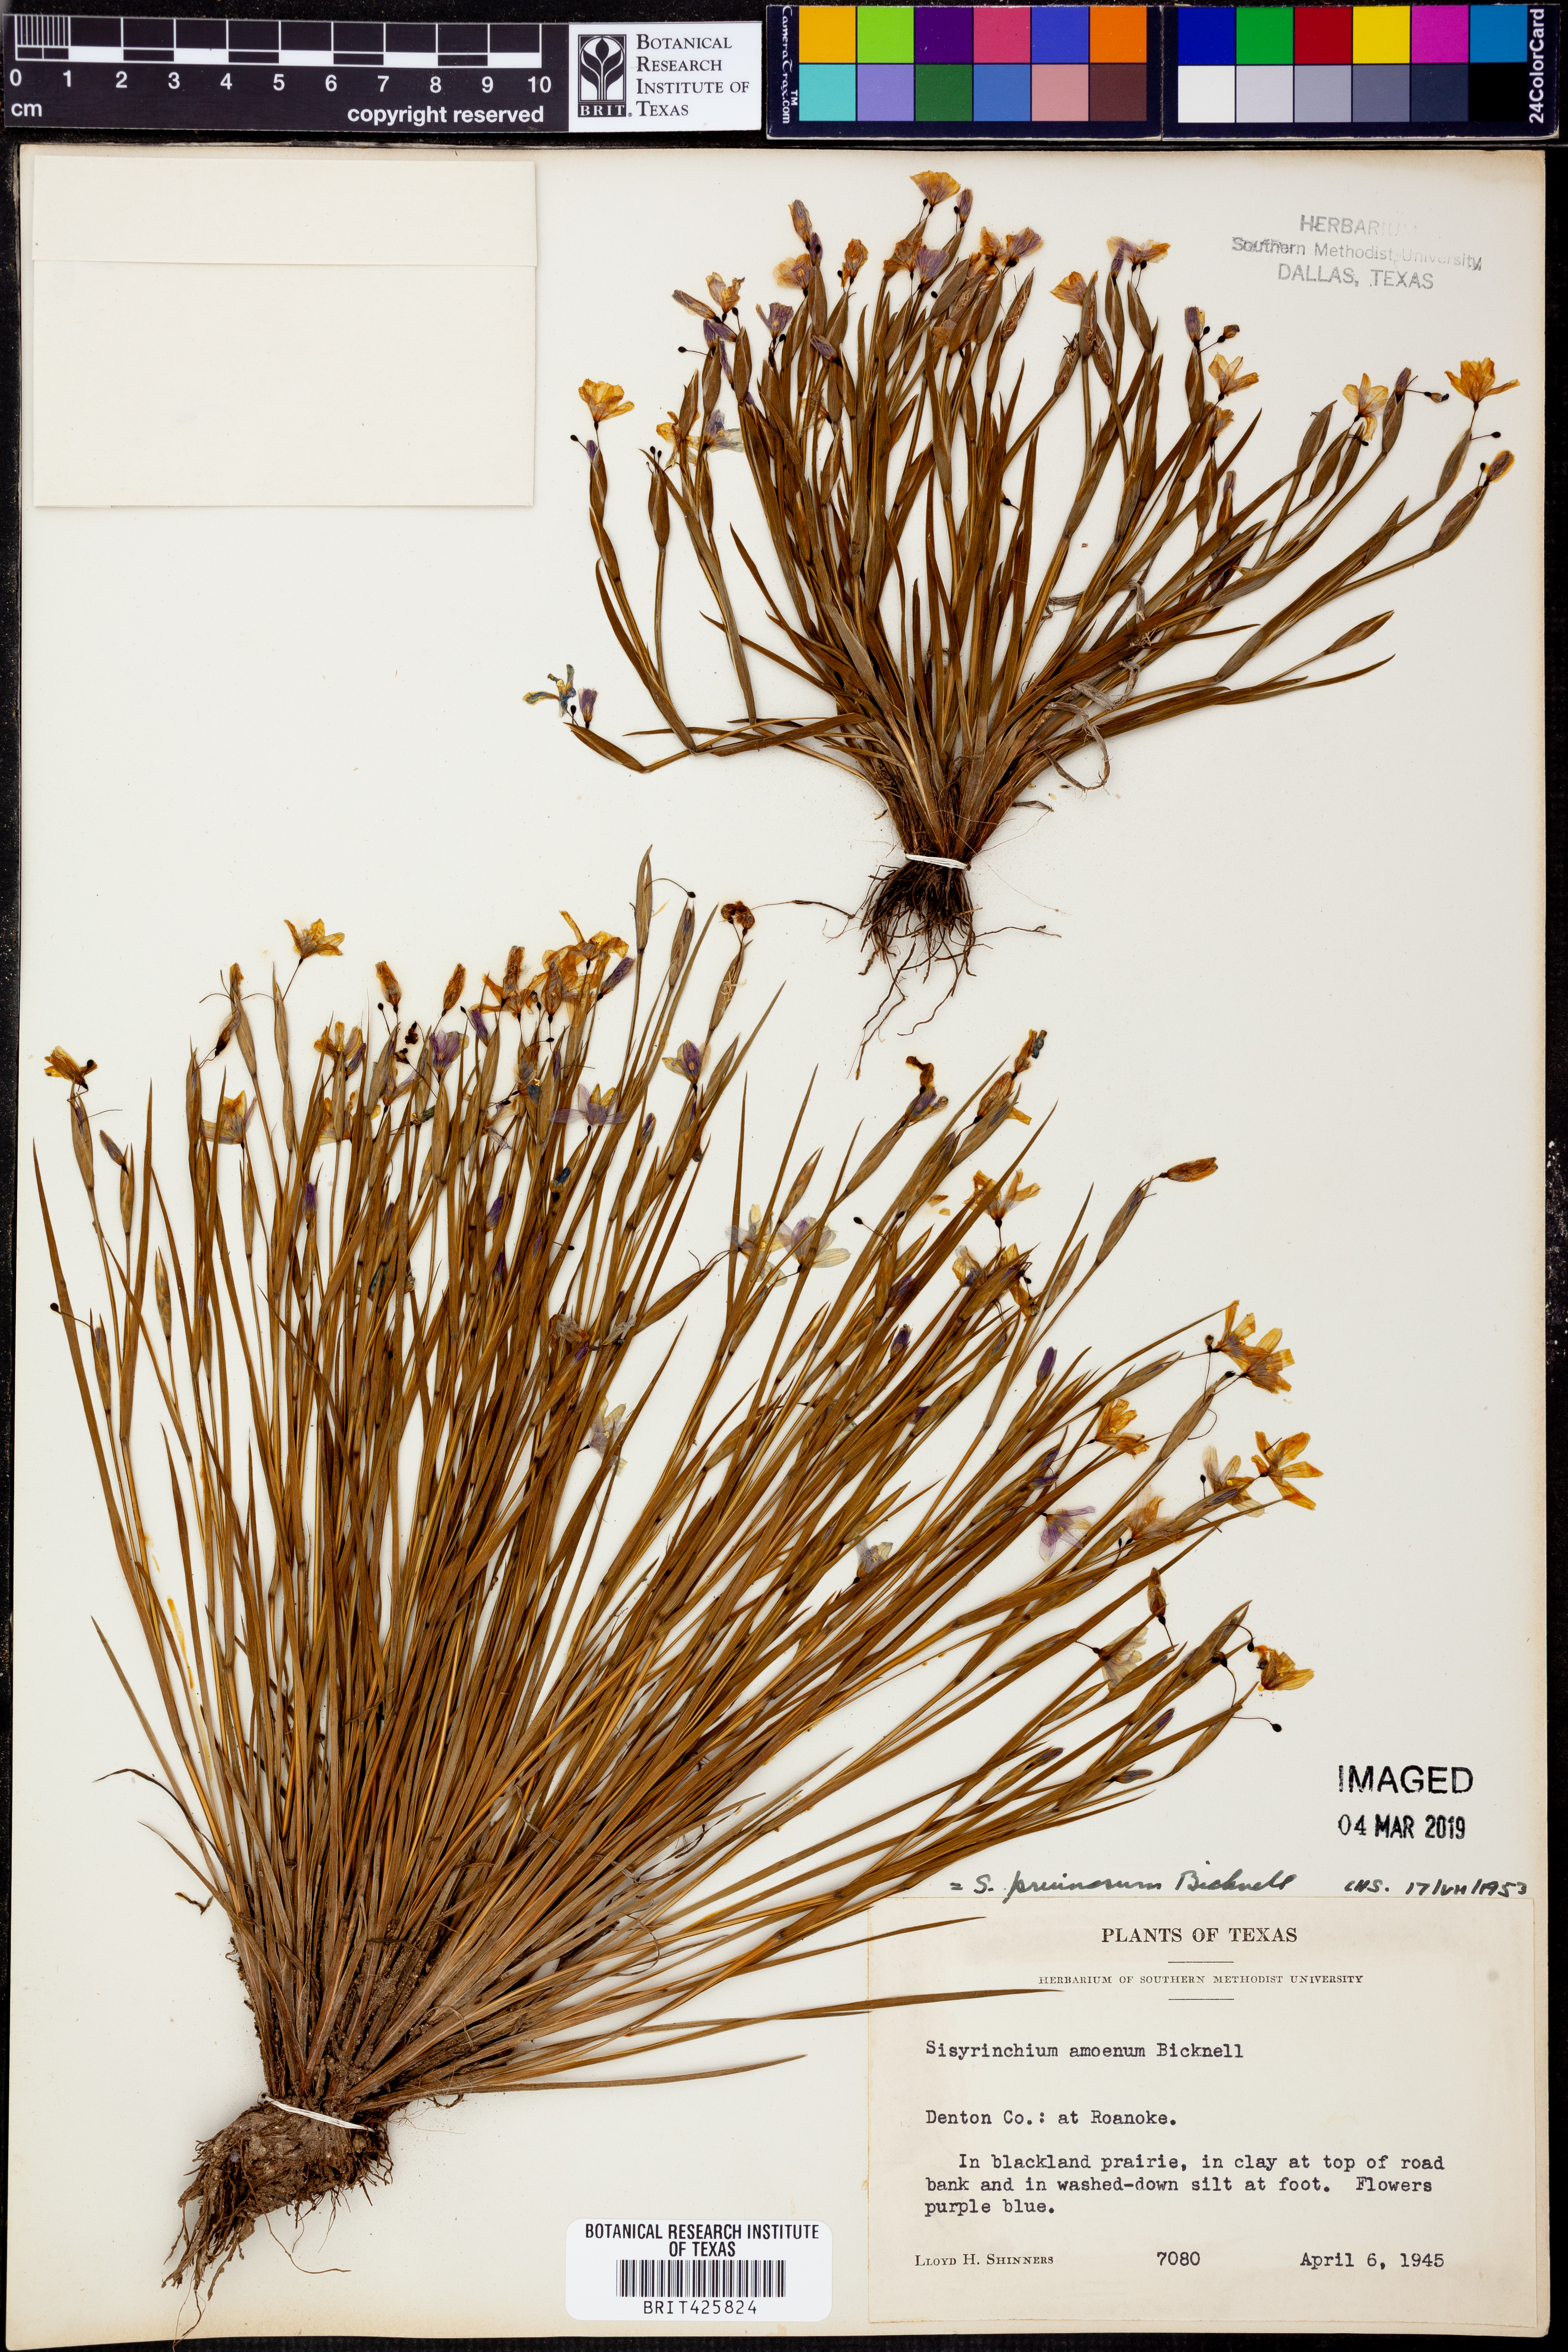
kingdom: Plantae
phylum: Tracheophyta
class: Liliopsida
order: Asparagales
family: Iridaceae
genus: Sisyrinchium
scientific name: Sisyrinchium ensigerum
